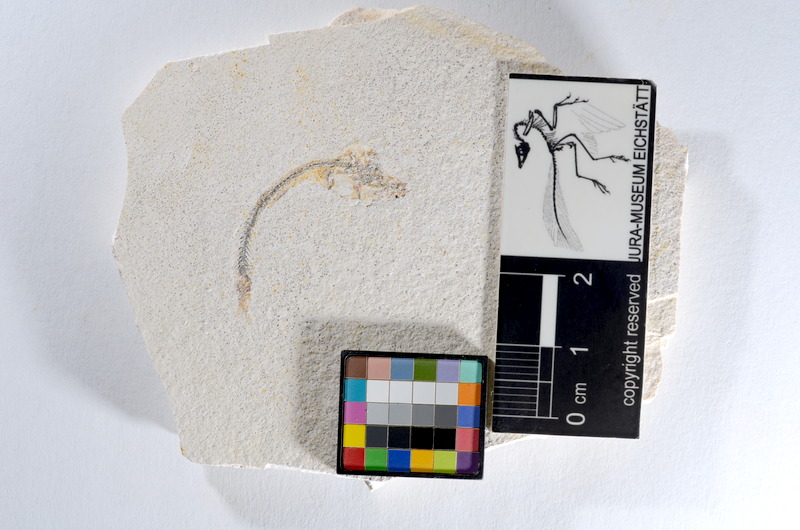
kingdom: Animalia
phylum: Chordata
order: Salmoniformes
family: Orthogonikleithridae
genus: Orthogonikleithrus
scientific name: Orthogonikleithrus hoelli
